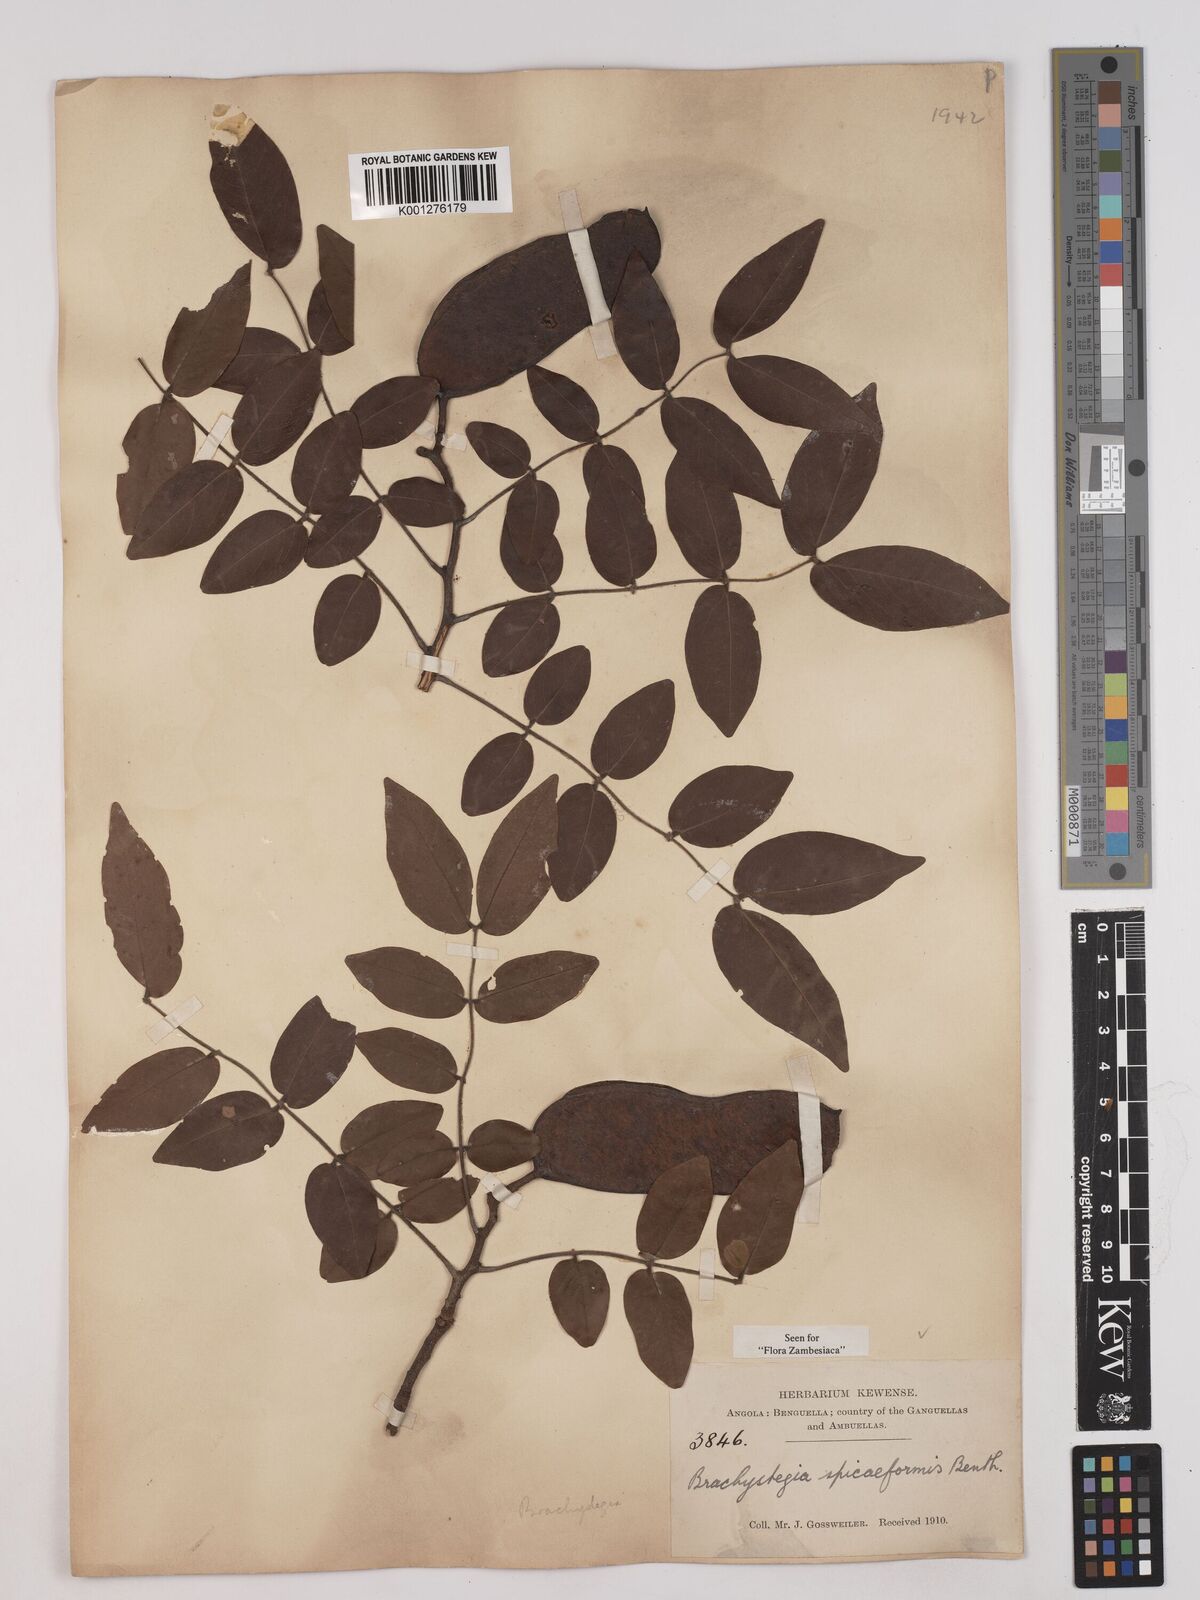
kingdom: Plantae
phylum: Tracheophyta
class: Magnoliopsida
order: Fabales
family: Fabaceae
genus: Brachystegia
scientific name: Brachystegia
